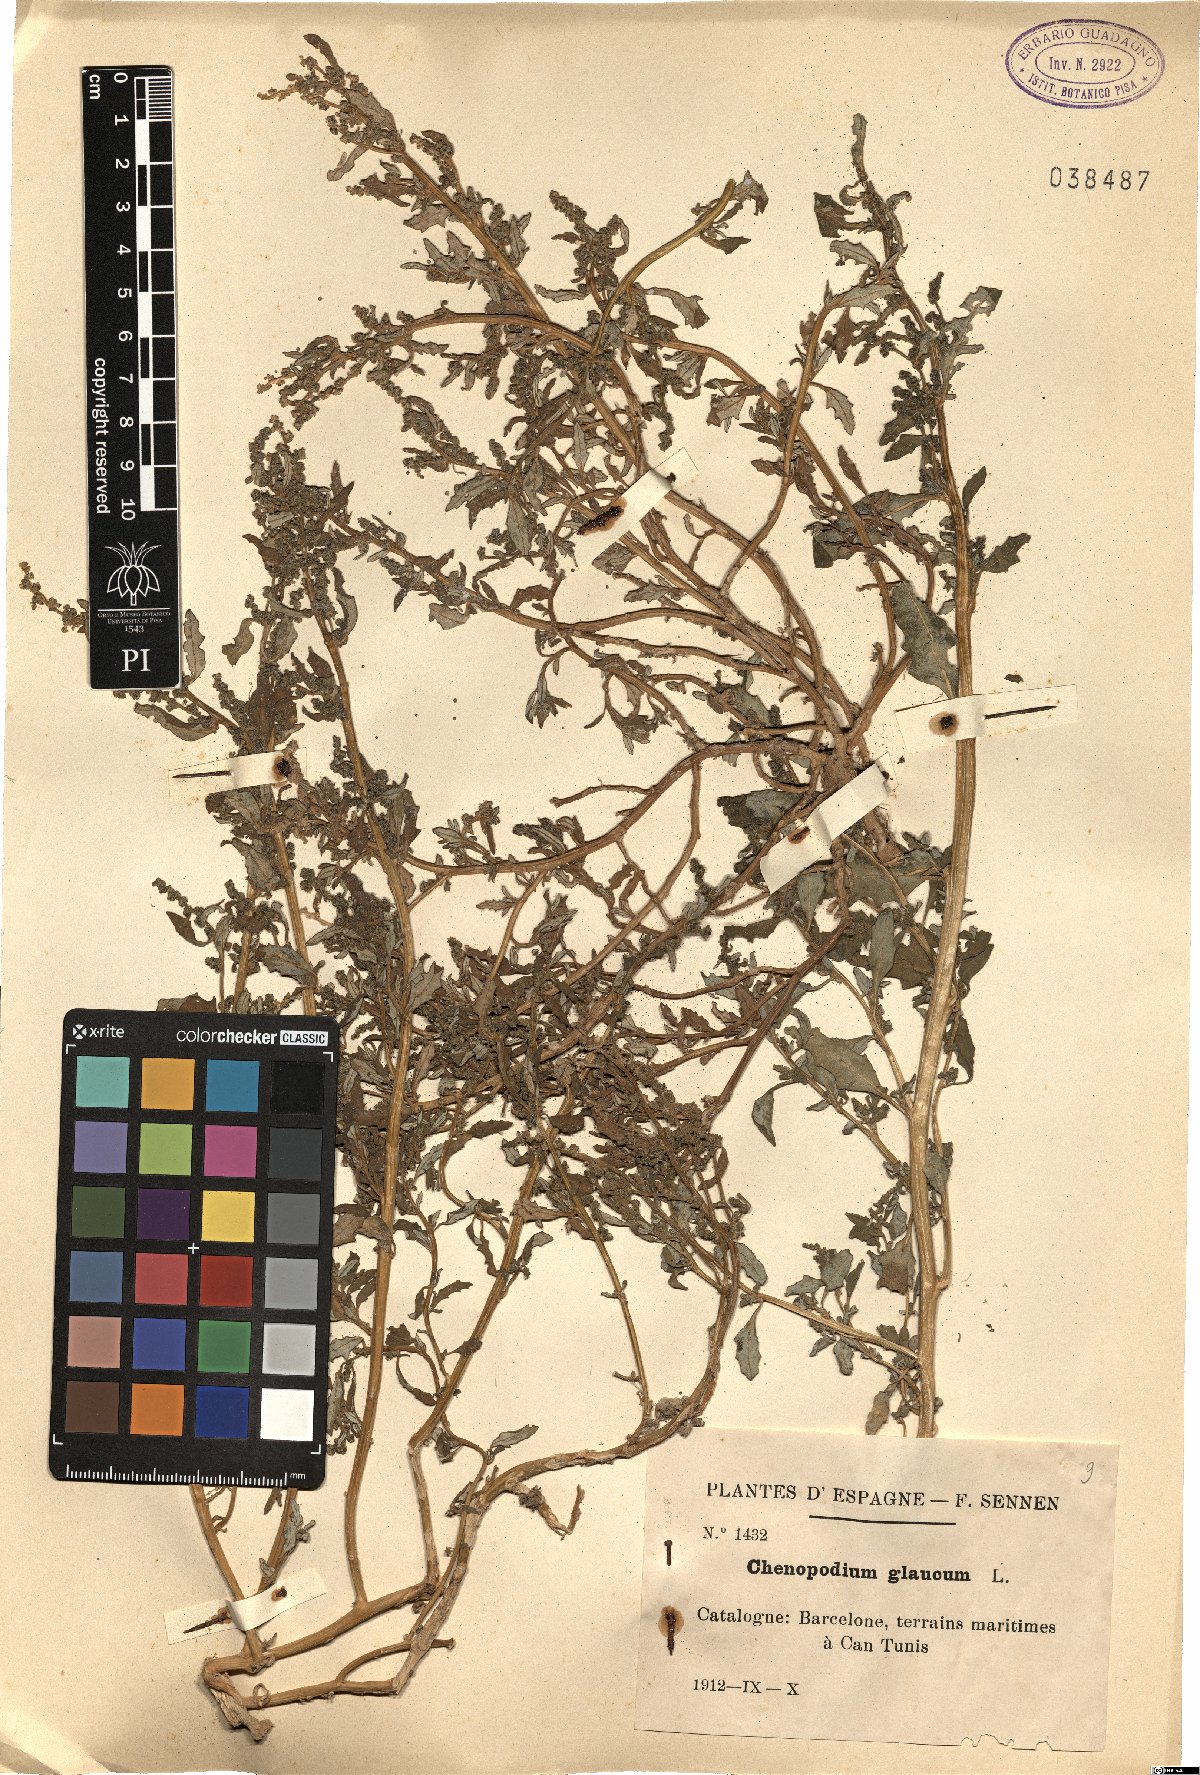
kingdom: Plantae
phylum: Tracheophyta
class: Magnoliopsida
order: Caryophyllales
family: Amaranthaceae
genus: Chenopodium
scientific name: Chenopodium album
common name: Fat-hen
